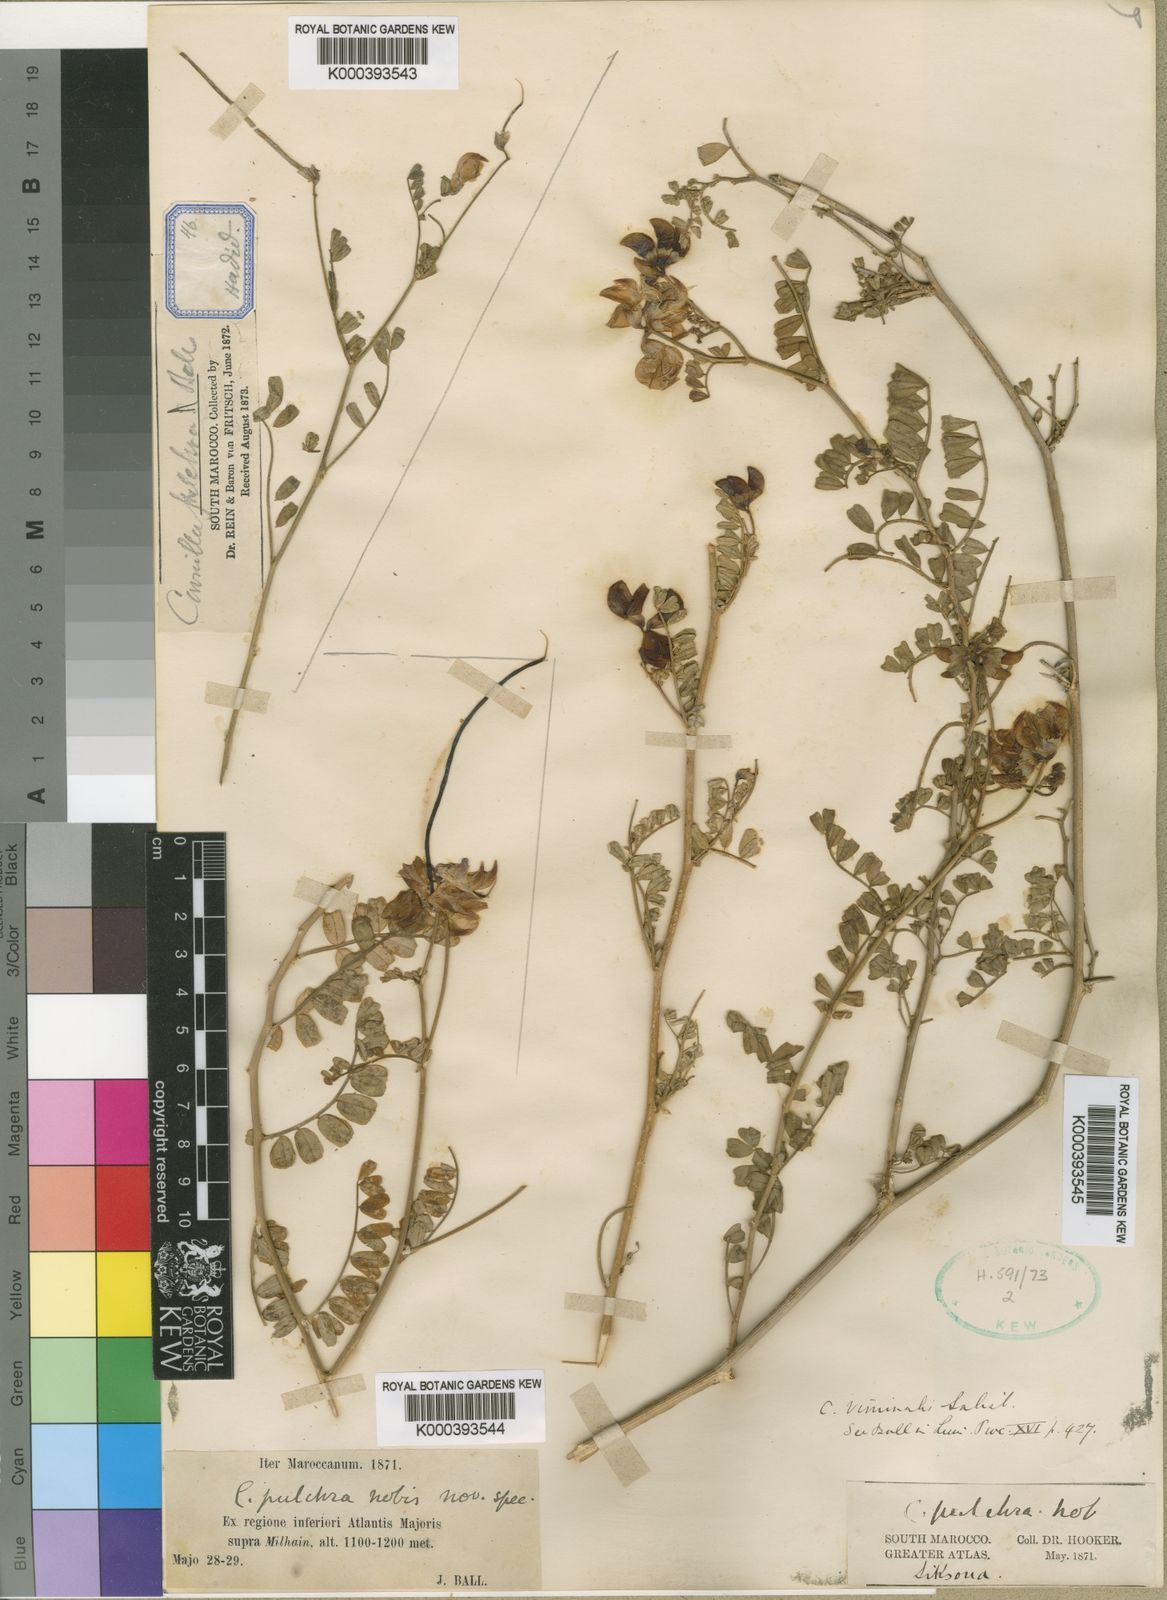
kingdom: Plantae
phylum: Tracheophyta
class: Magnoliopsida
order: Fabales
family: Fabaceae
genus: Coronilla
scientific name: Coronilla viminalis
